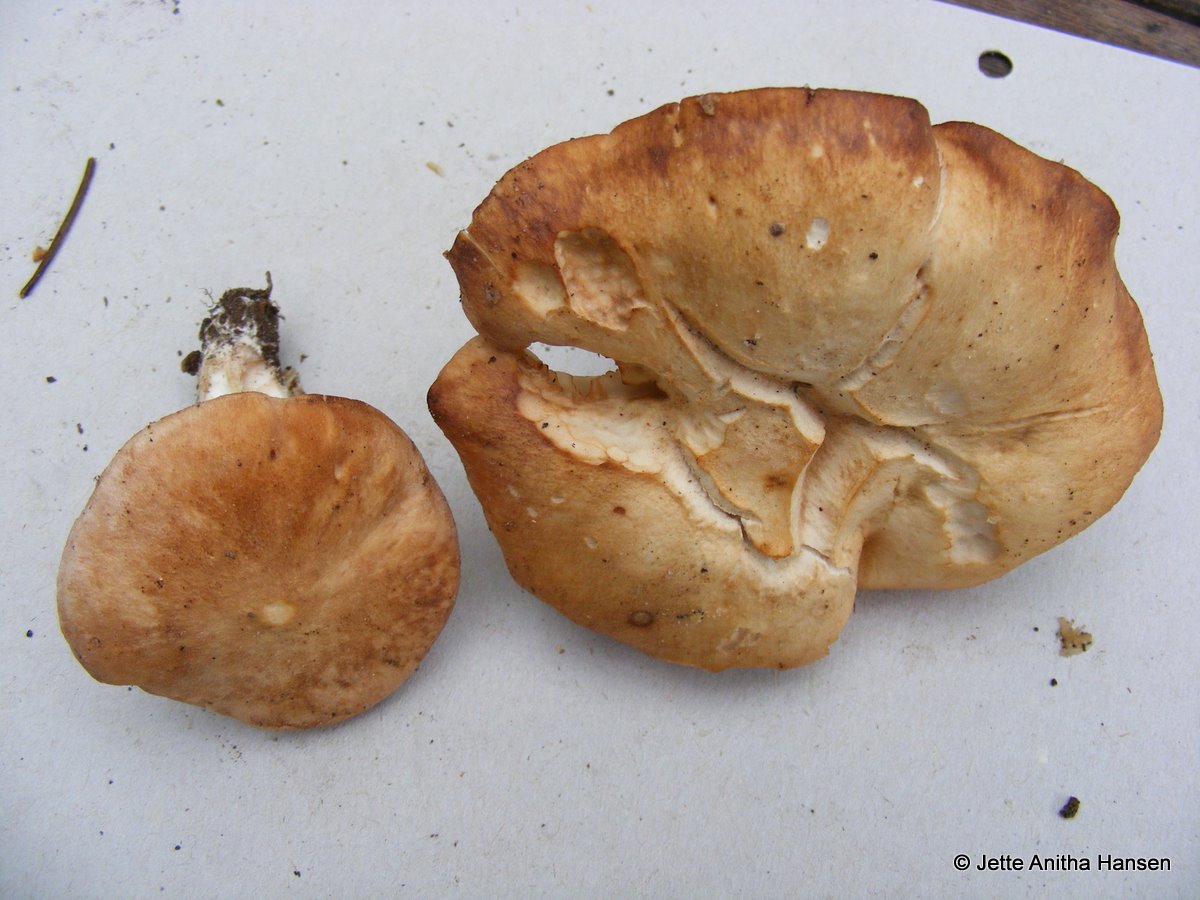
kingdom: Fungi
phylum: Basidiomycota
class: Agaricomycetes
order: Agaricales
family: Entolomataceae
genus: Clitopilus
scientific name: Clitopilus geminus
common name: kødfarvet troldhat
